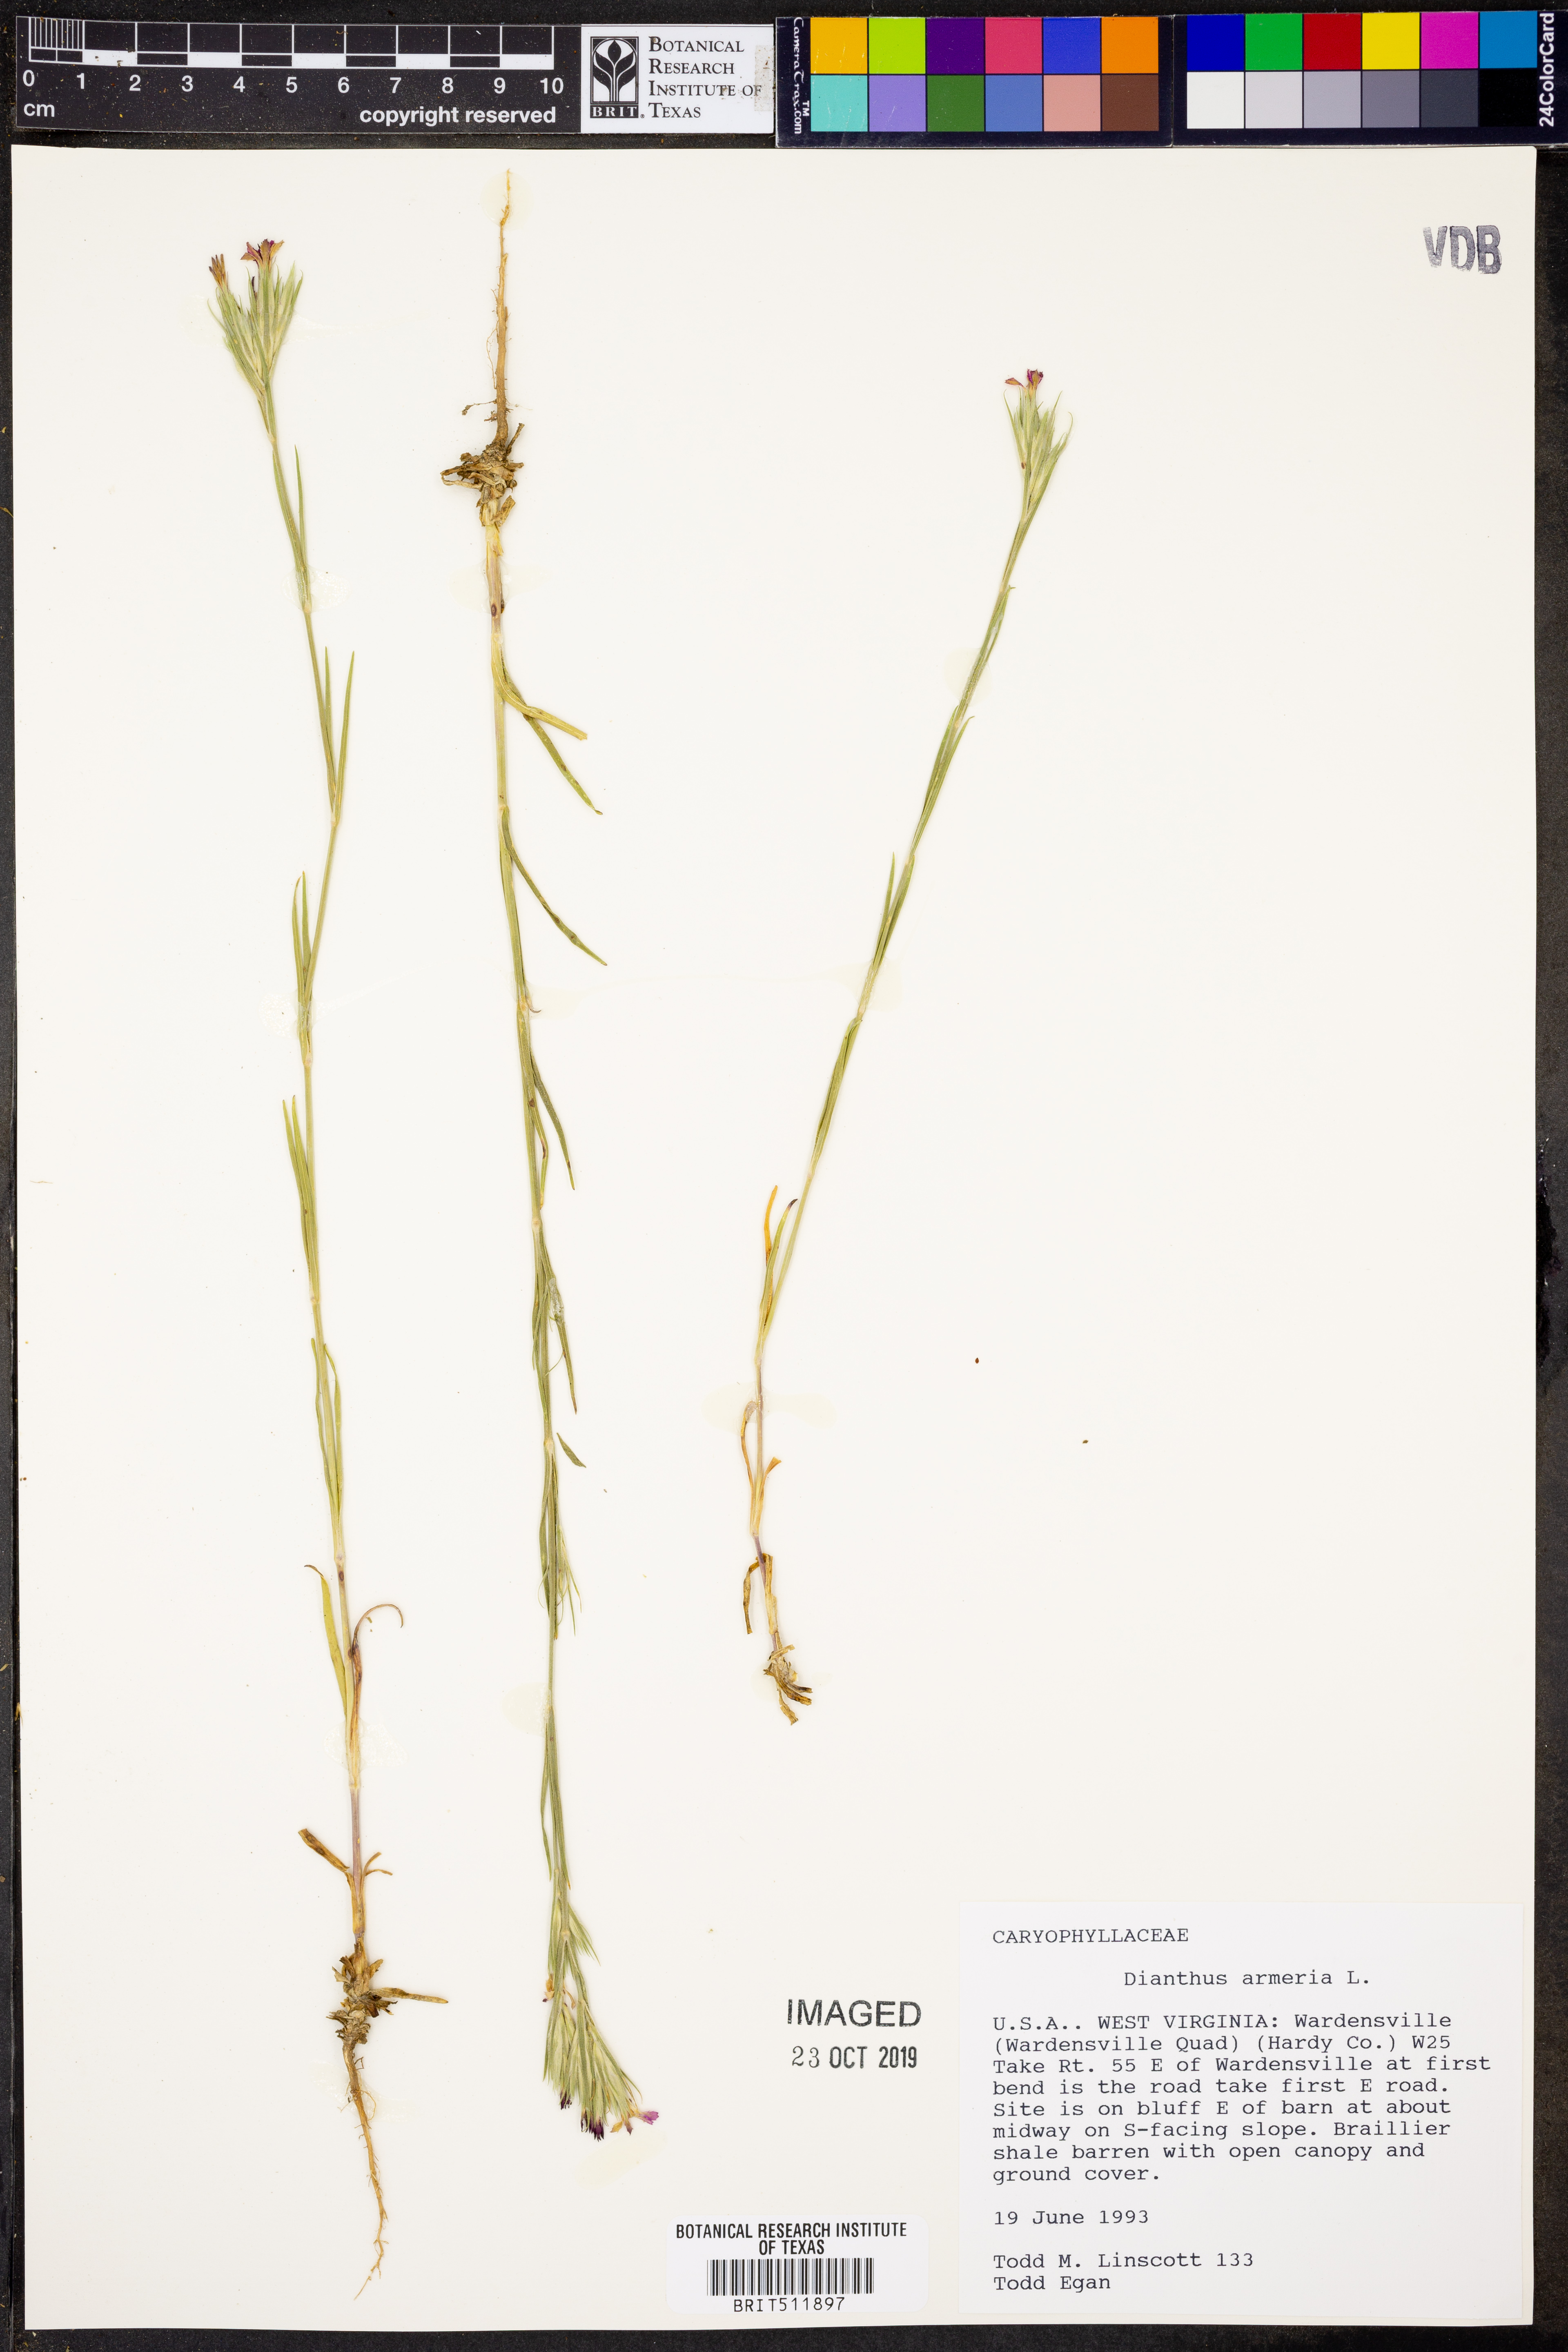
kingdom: Plantae
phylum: Tracheophyta
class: Magnoliopsida
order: Caryophyllales
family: Caryophyllaceae
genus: Dianthus
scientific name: Dianthus armeria
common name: Deptford pink
